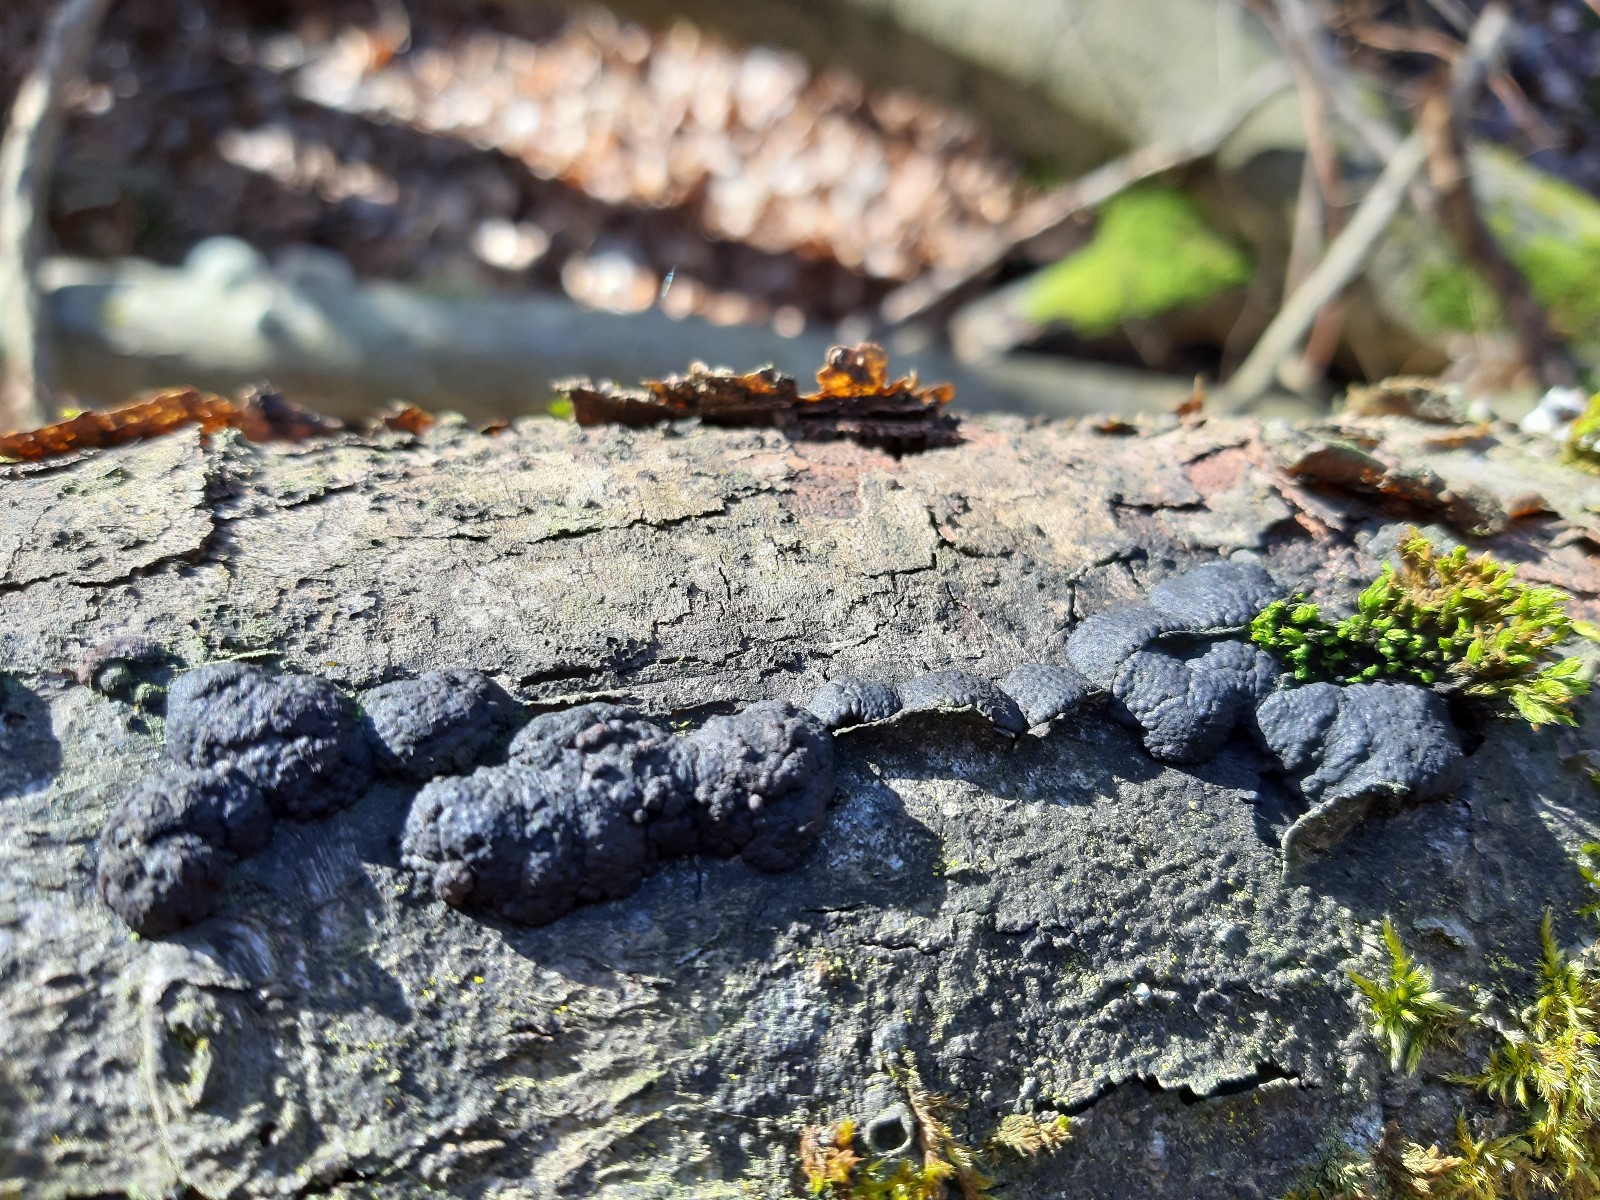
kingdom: Fungi
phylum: Ascomycota
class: Sordariomycetes
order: Xylariales
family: Hypoxylaceae
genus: Jackrogersella
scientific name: Jackrogersella cohaerens
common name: sammenflydende kulbær
